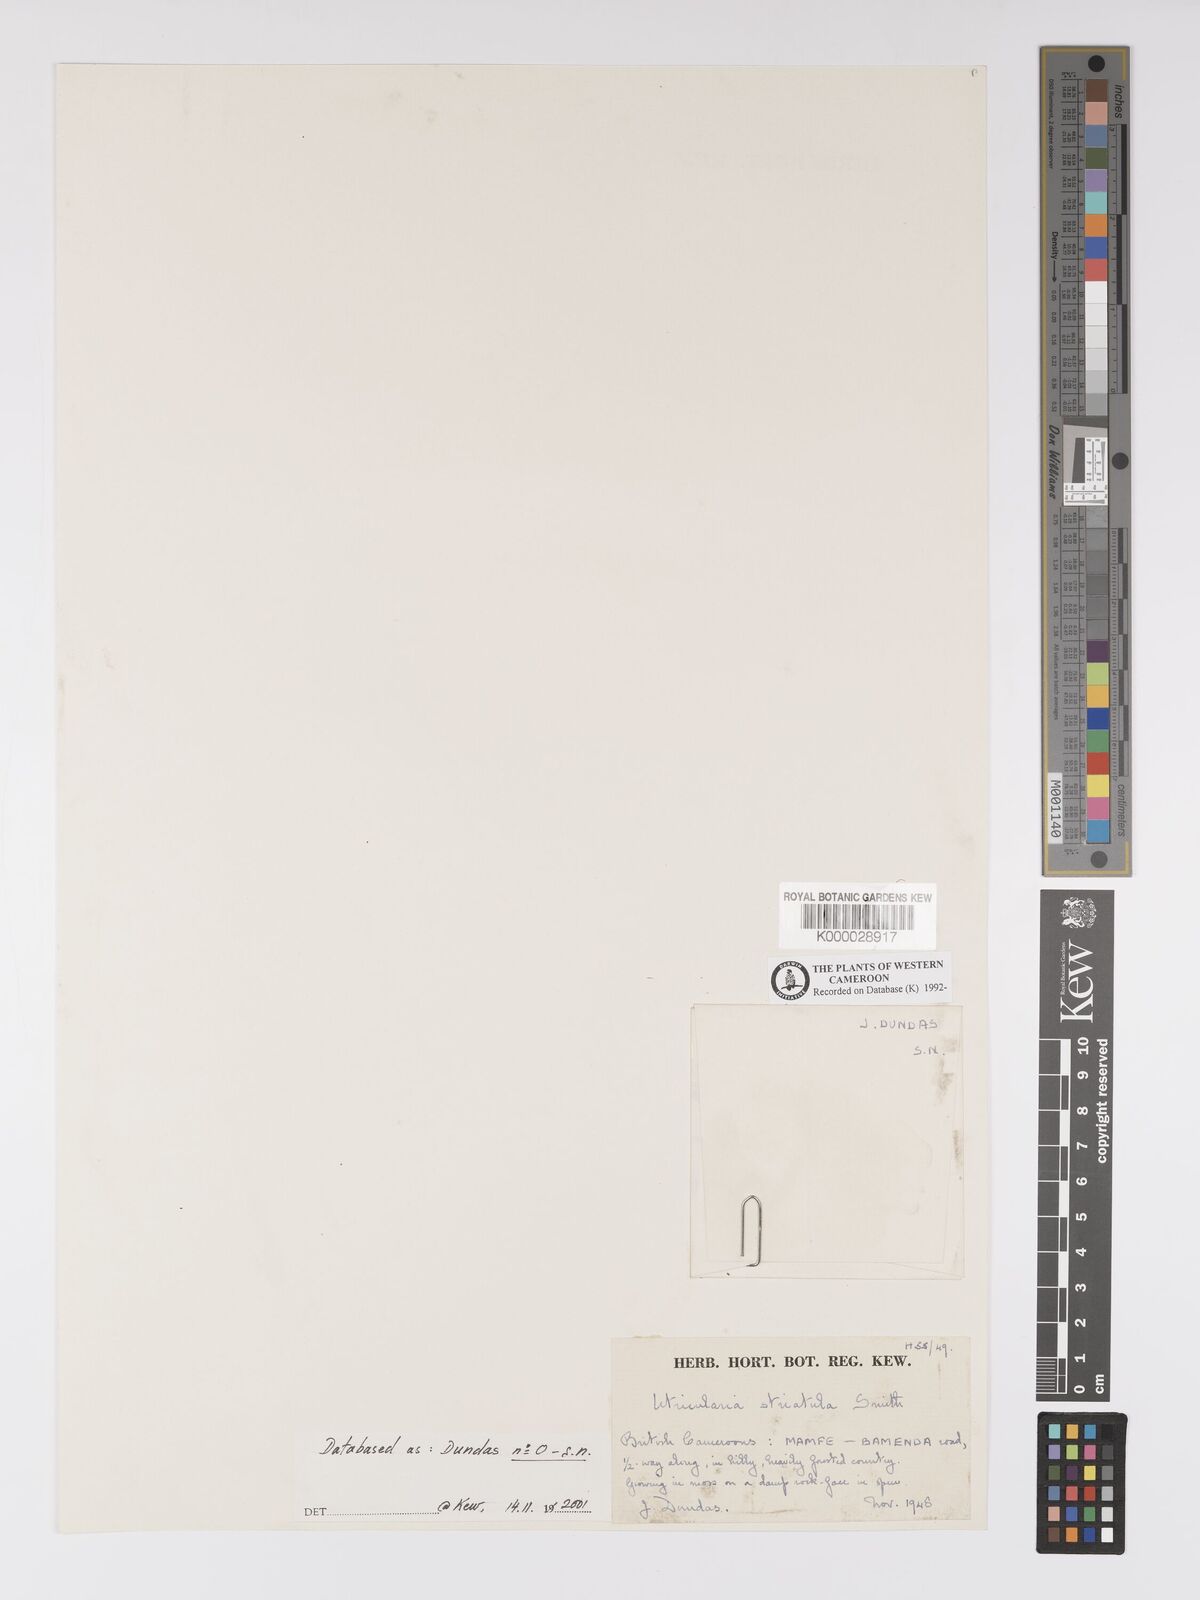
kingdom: Plantae
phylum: Tracheophyta
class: Magnoliopsida
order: Lamiales
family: Lentibulariaceae
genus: Utricularia
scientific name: Utricularia striatula
